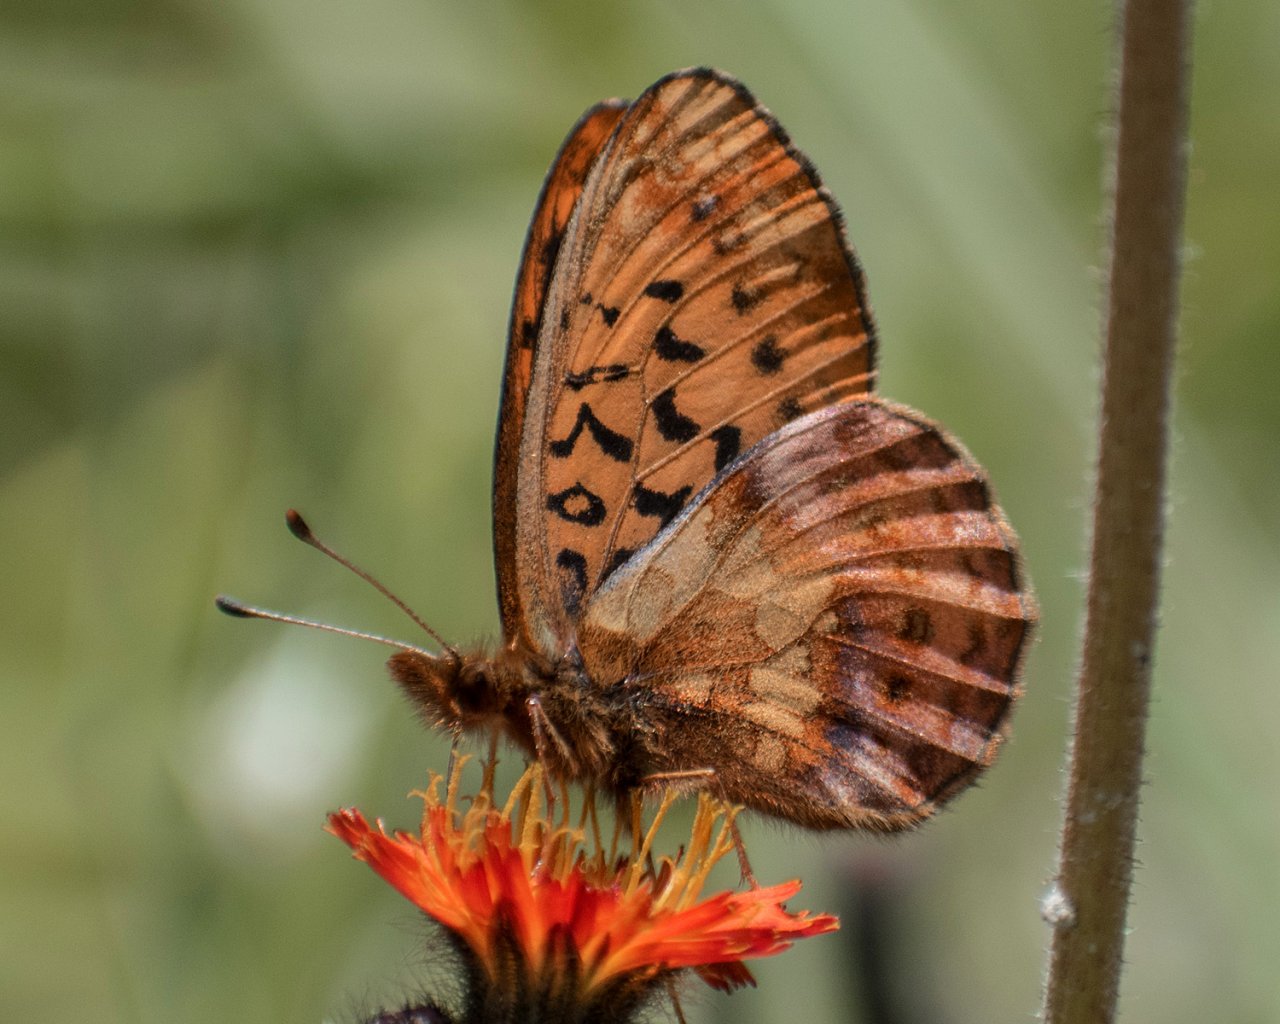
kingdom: Animalia
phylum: Arthropoda
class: Insecta
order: Lepidoptera
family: Nymphalidae
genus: Boloria
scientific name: Boloria epithore
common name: Pacific Fritillary
